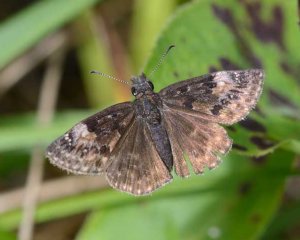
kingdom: Animalia
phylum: Arthropoda
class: Insecta
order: Lepidoptera
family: Hesperiidae
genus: Gesta
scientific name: Gesta
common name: Columbine Duskywing
